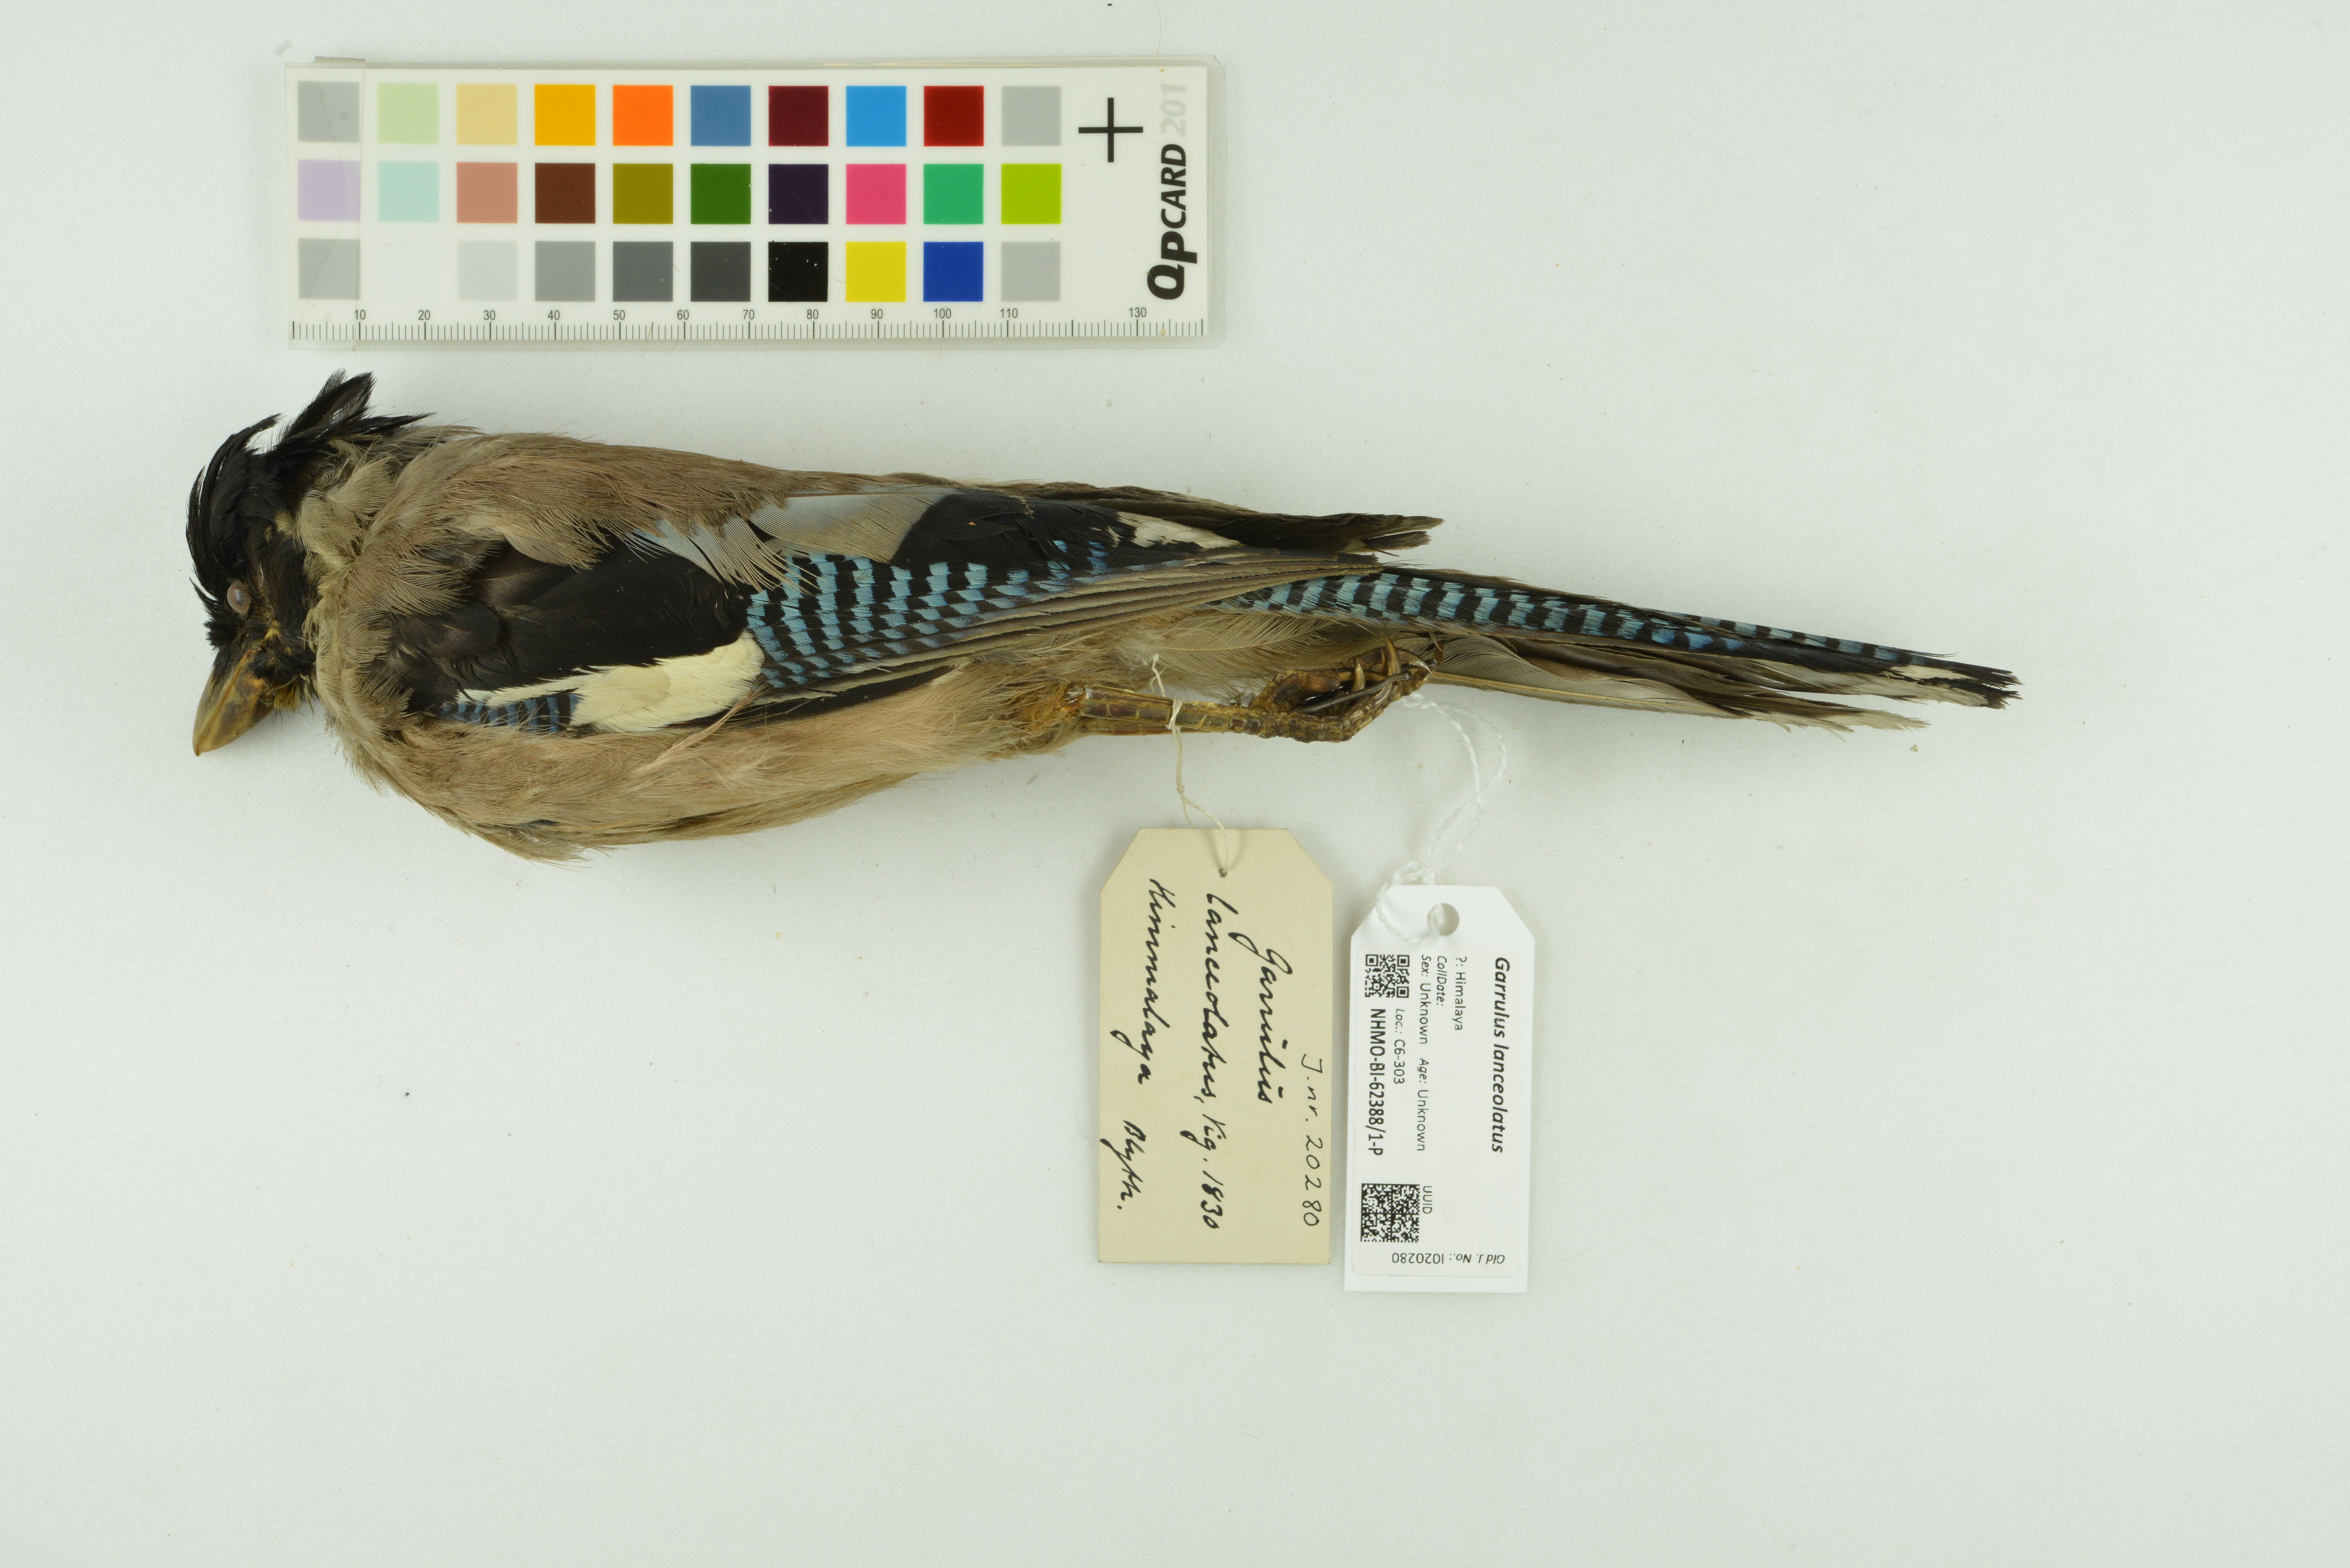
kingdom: Animalia
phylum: Chordata
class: Aves
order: Passeriformes
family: Corvidae
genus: Garrulus
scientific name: Garrulus lanceolatus
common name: Black-headed jay
